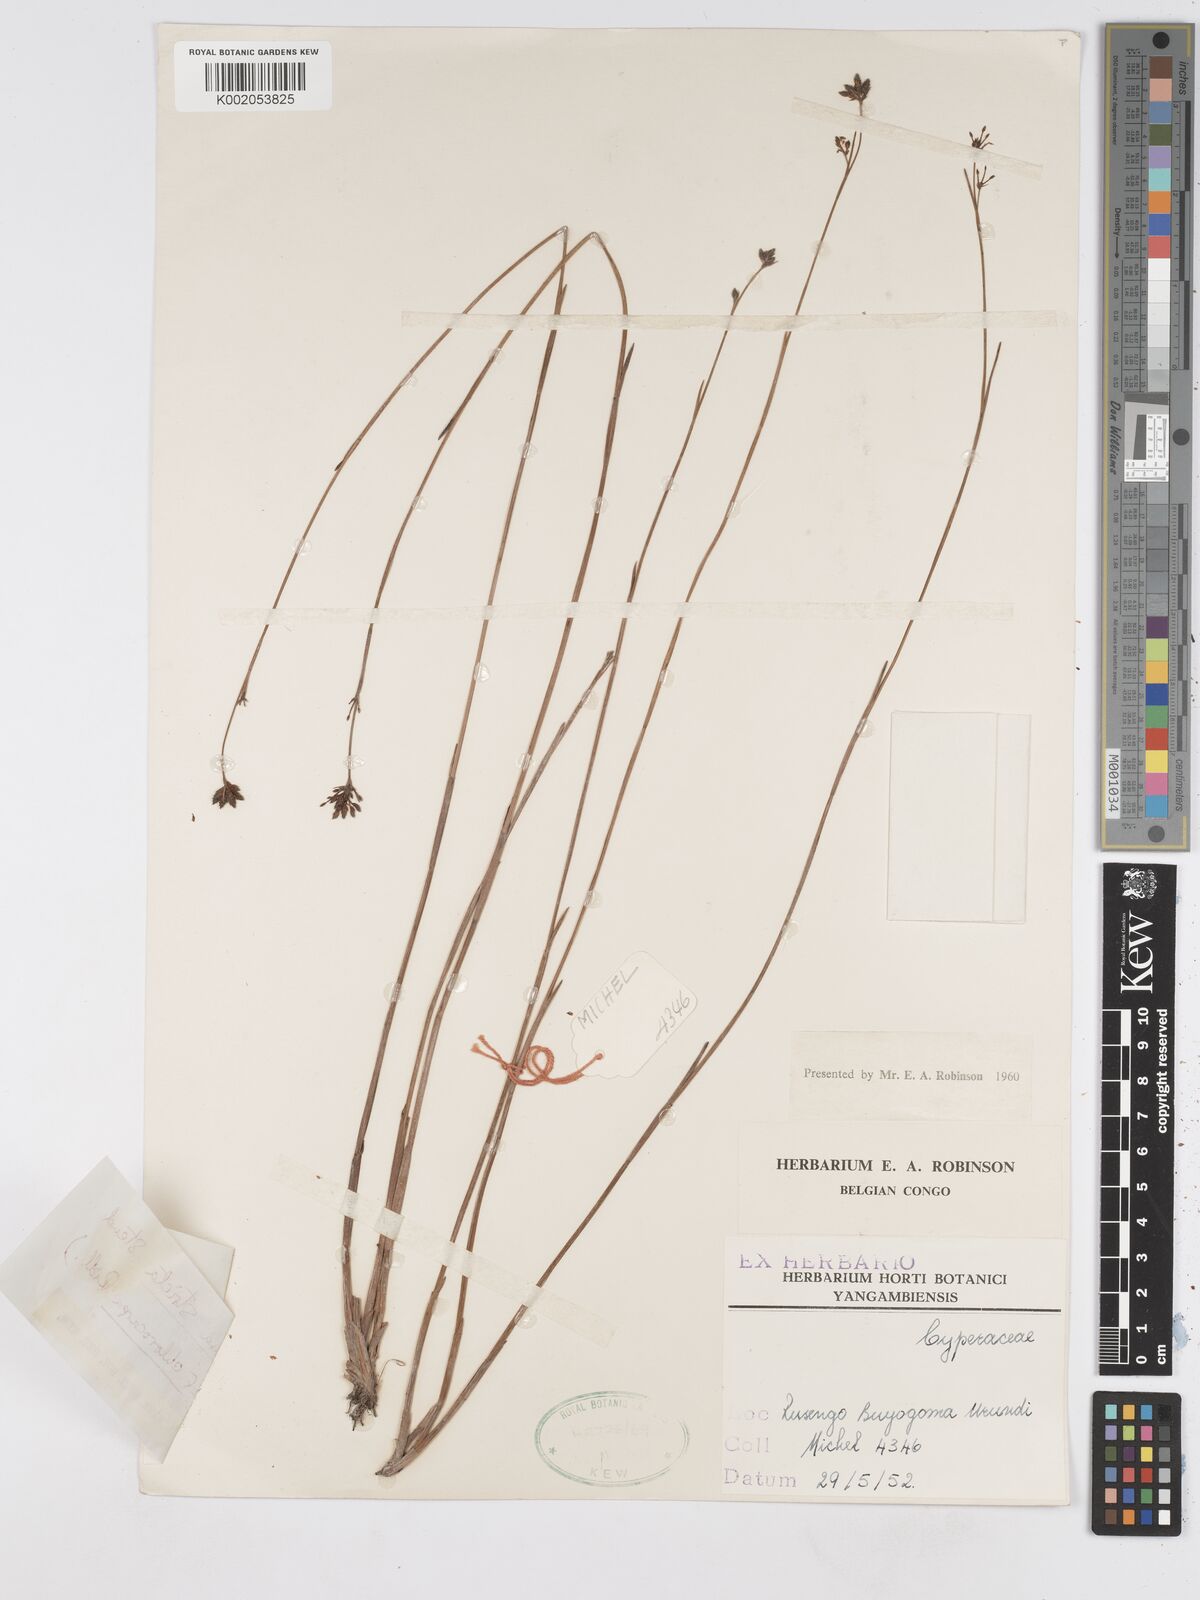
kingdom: Plantae
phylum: Tracheophyta
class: Liliopsida
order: Poales
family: Cyperaceae
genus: Fuirena
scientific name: Fuirena stricta
